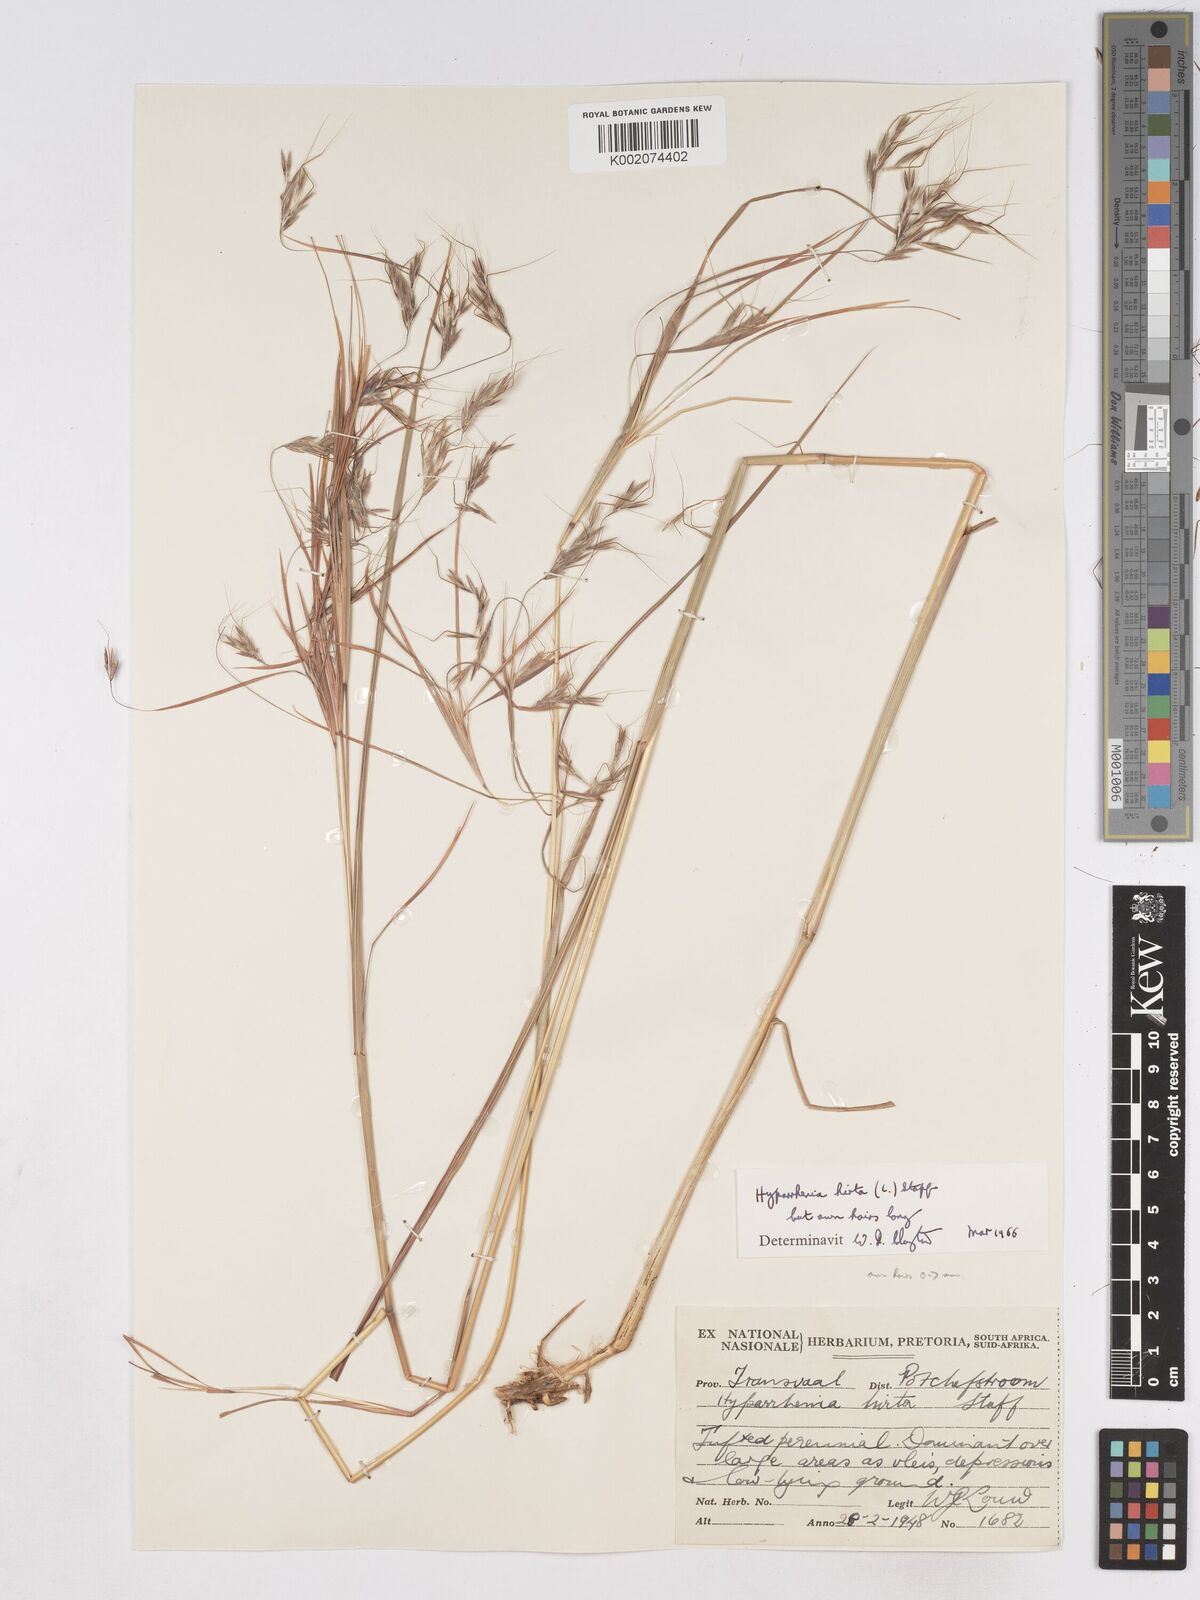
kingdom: Plantae
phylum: Tracheophyta
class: Liliopsida
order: Poales
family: Poaceae
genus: Hyparrhenia
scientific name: Hyparrhenia hirta
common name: Thatching grass
